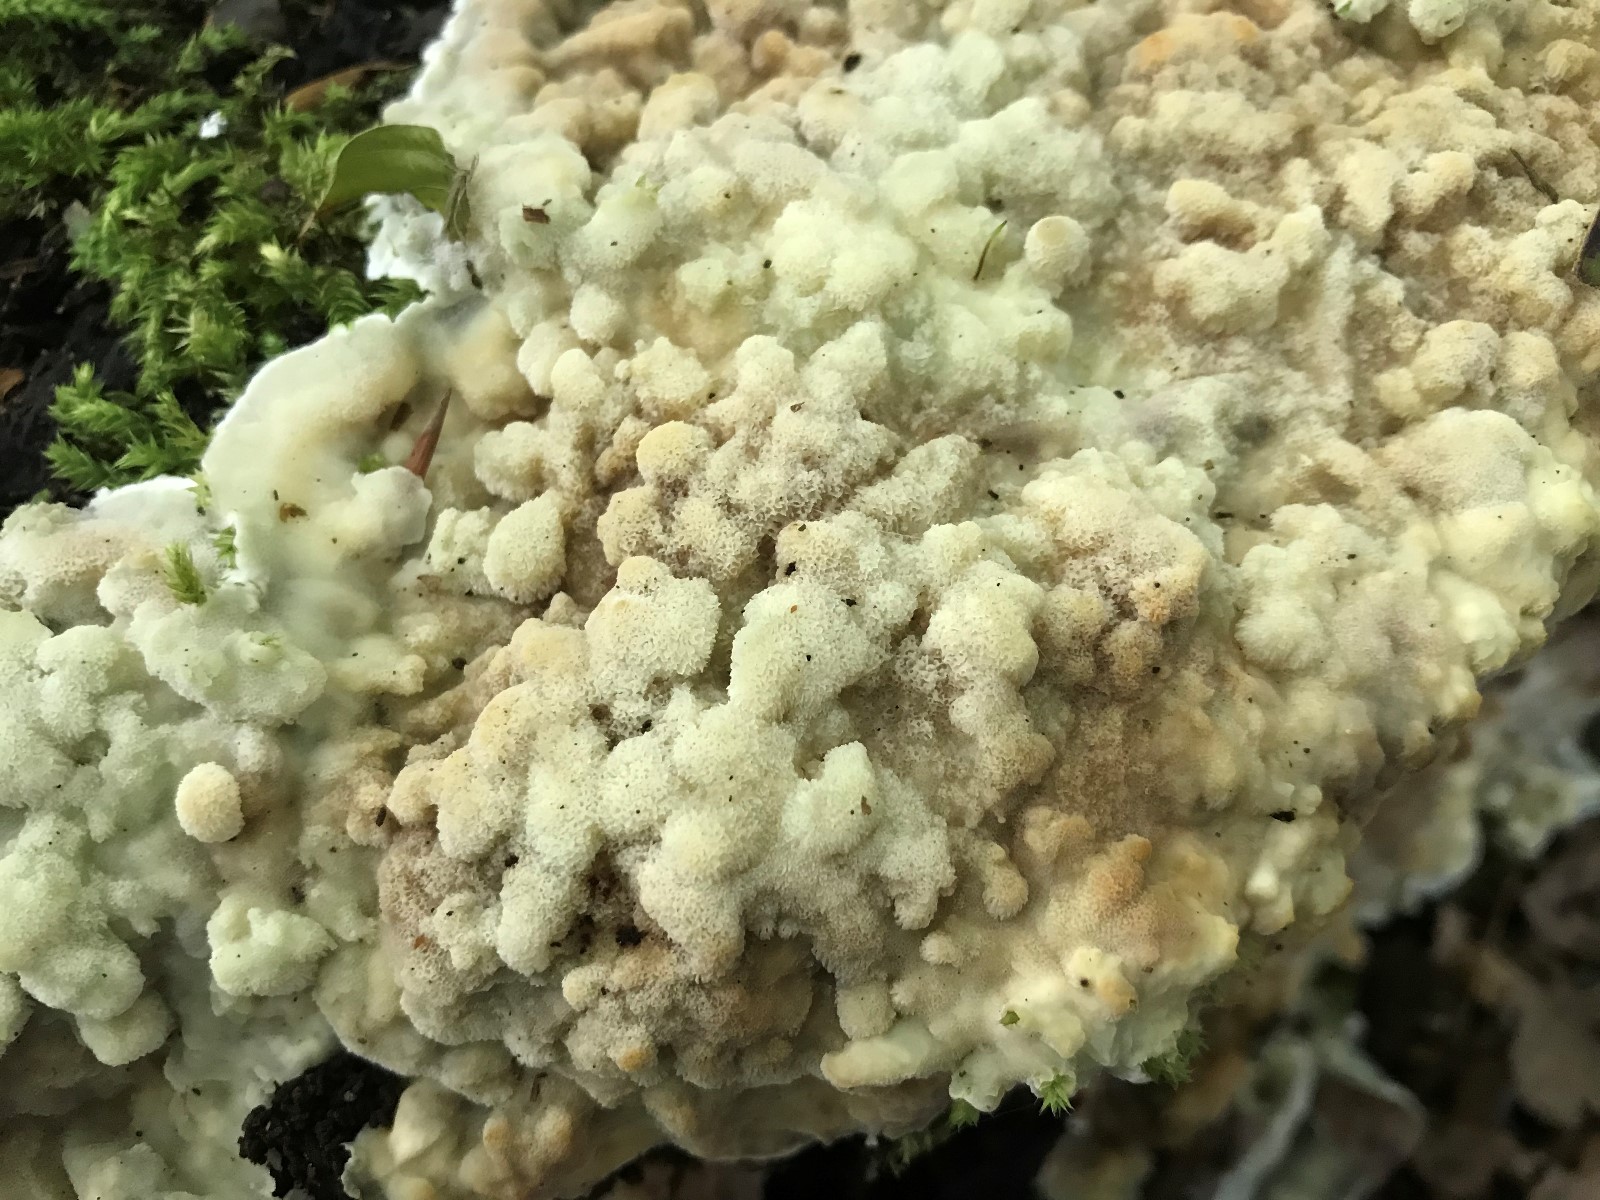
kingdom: Fungi
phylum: Basidiomycota
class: Agaricomycetes
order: Polyporales
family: Meruliaceae
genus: Physisporinus
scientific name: Physisporinus vitreus
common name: mastesvamp
